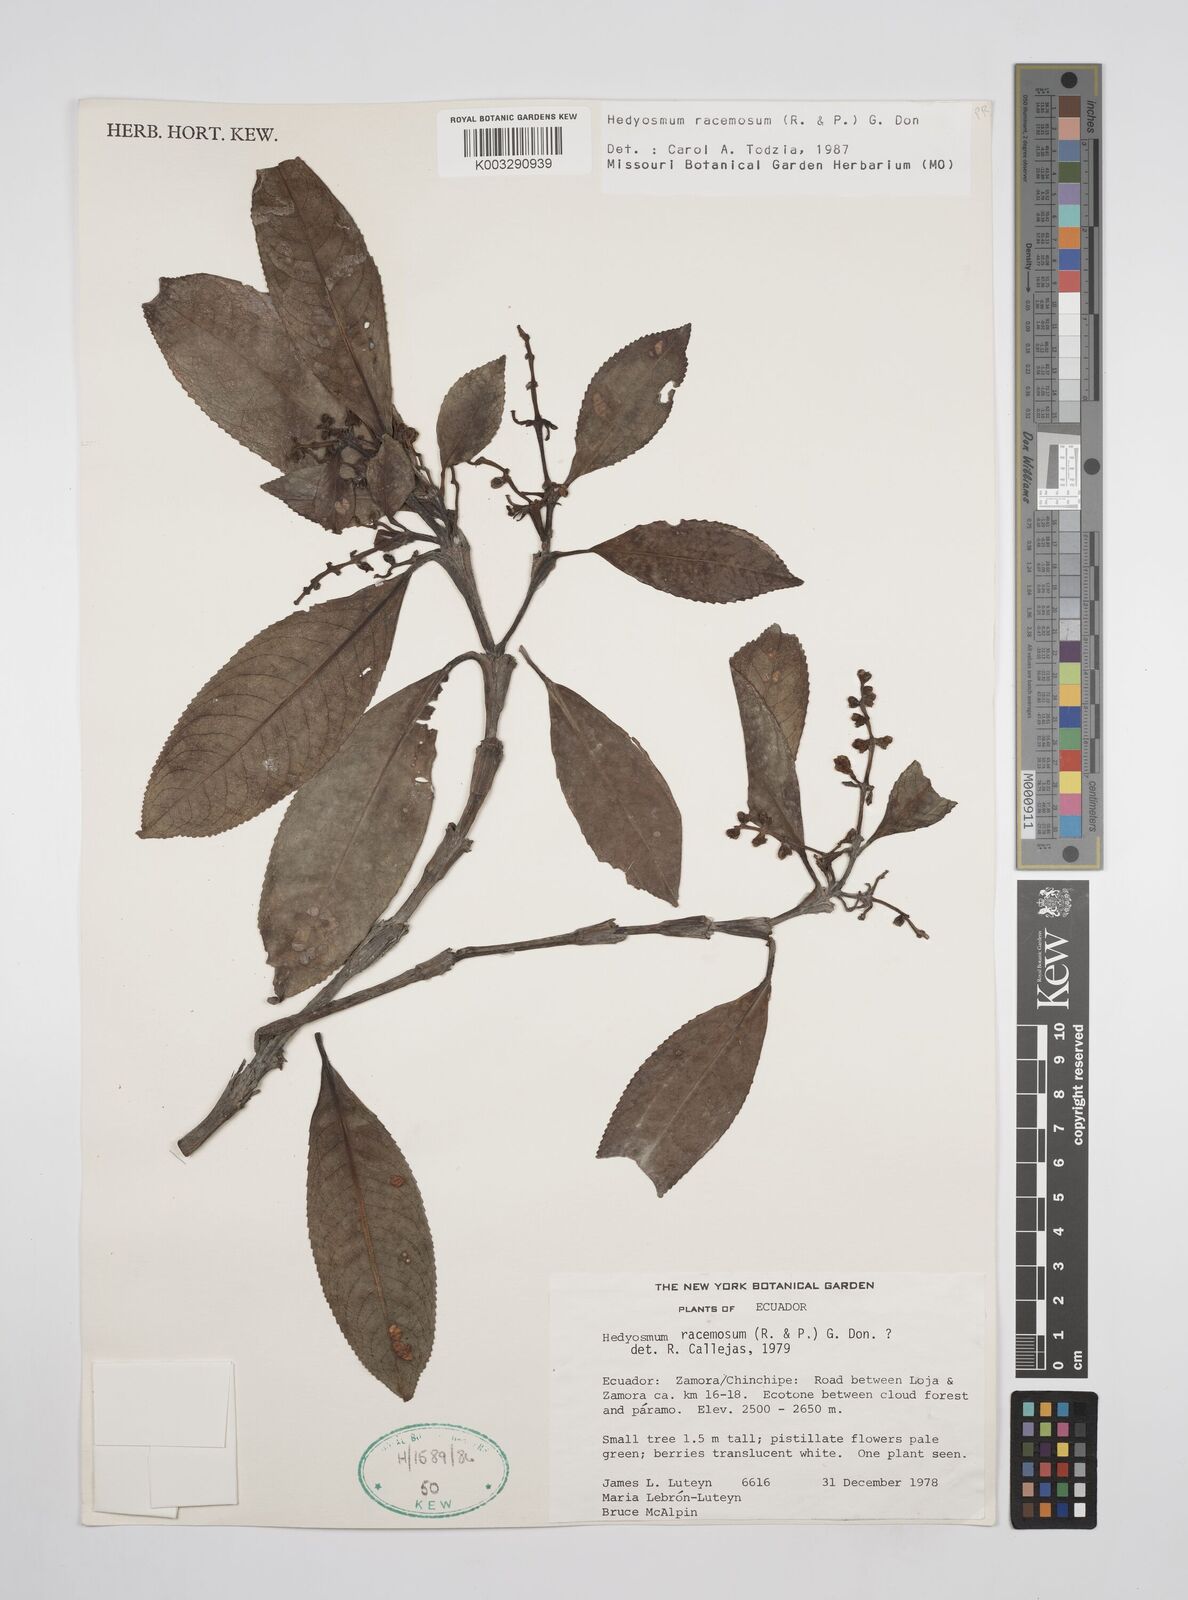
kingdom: Plantae
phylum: Tracheophyta
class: Magnoliopsida
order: Chloranthales
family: Chloranthaceae
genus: Hedyosmum
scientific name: Hedyosmum racemosum
